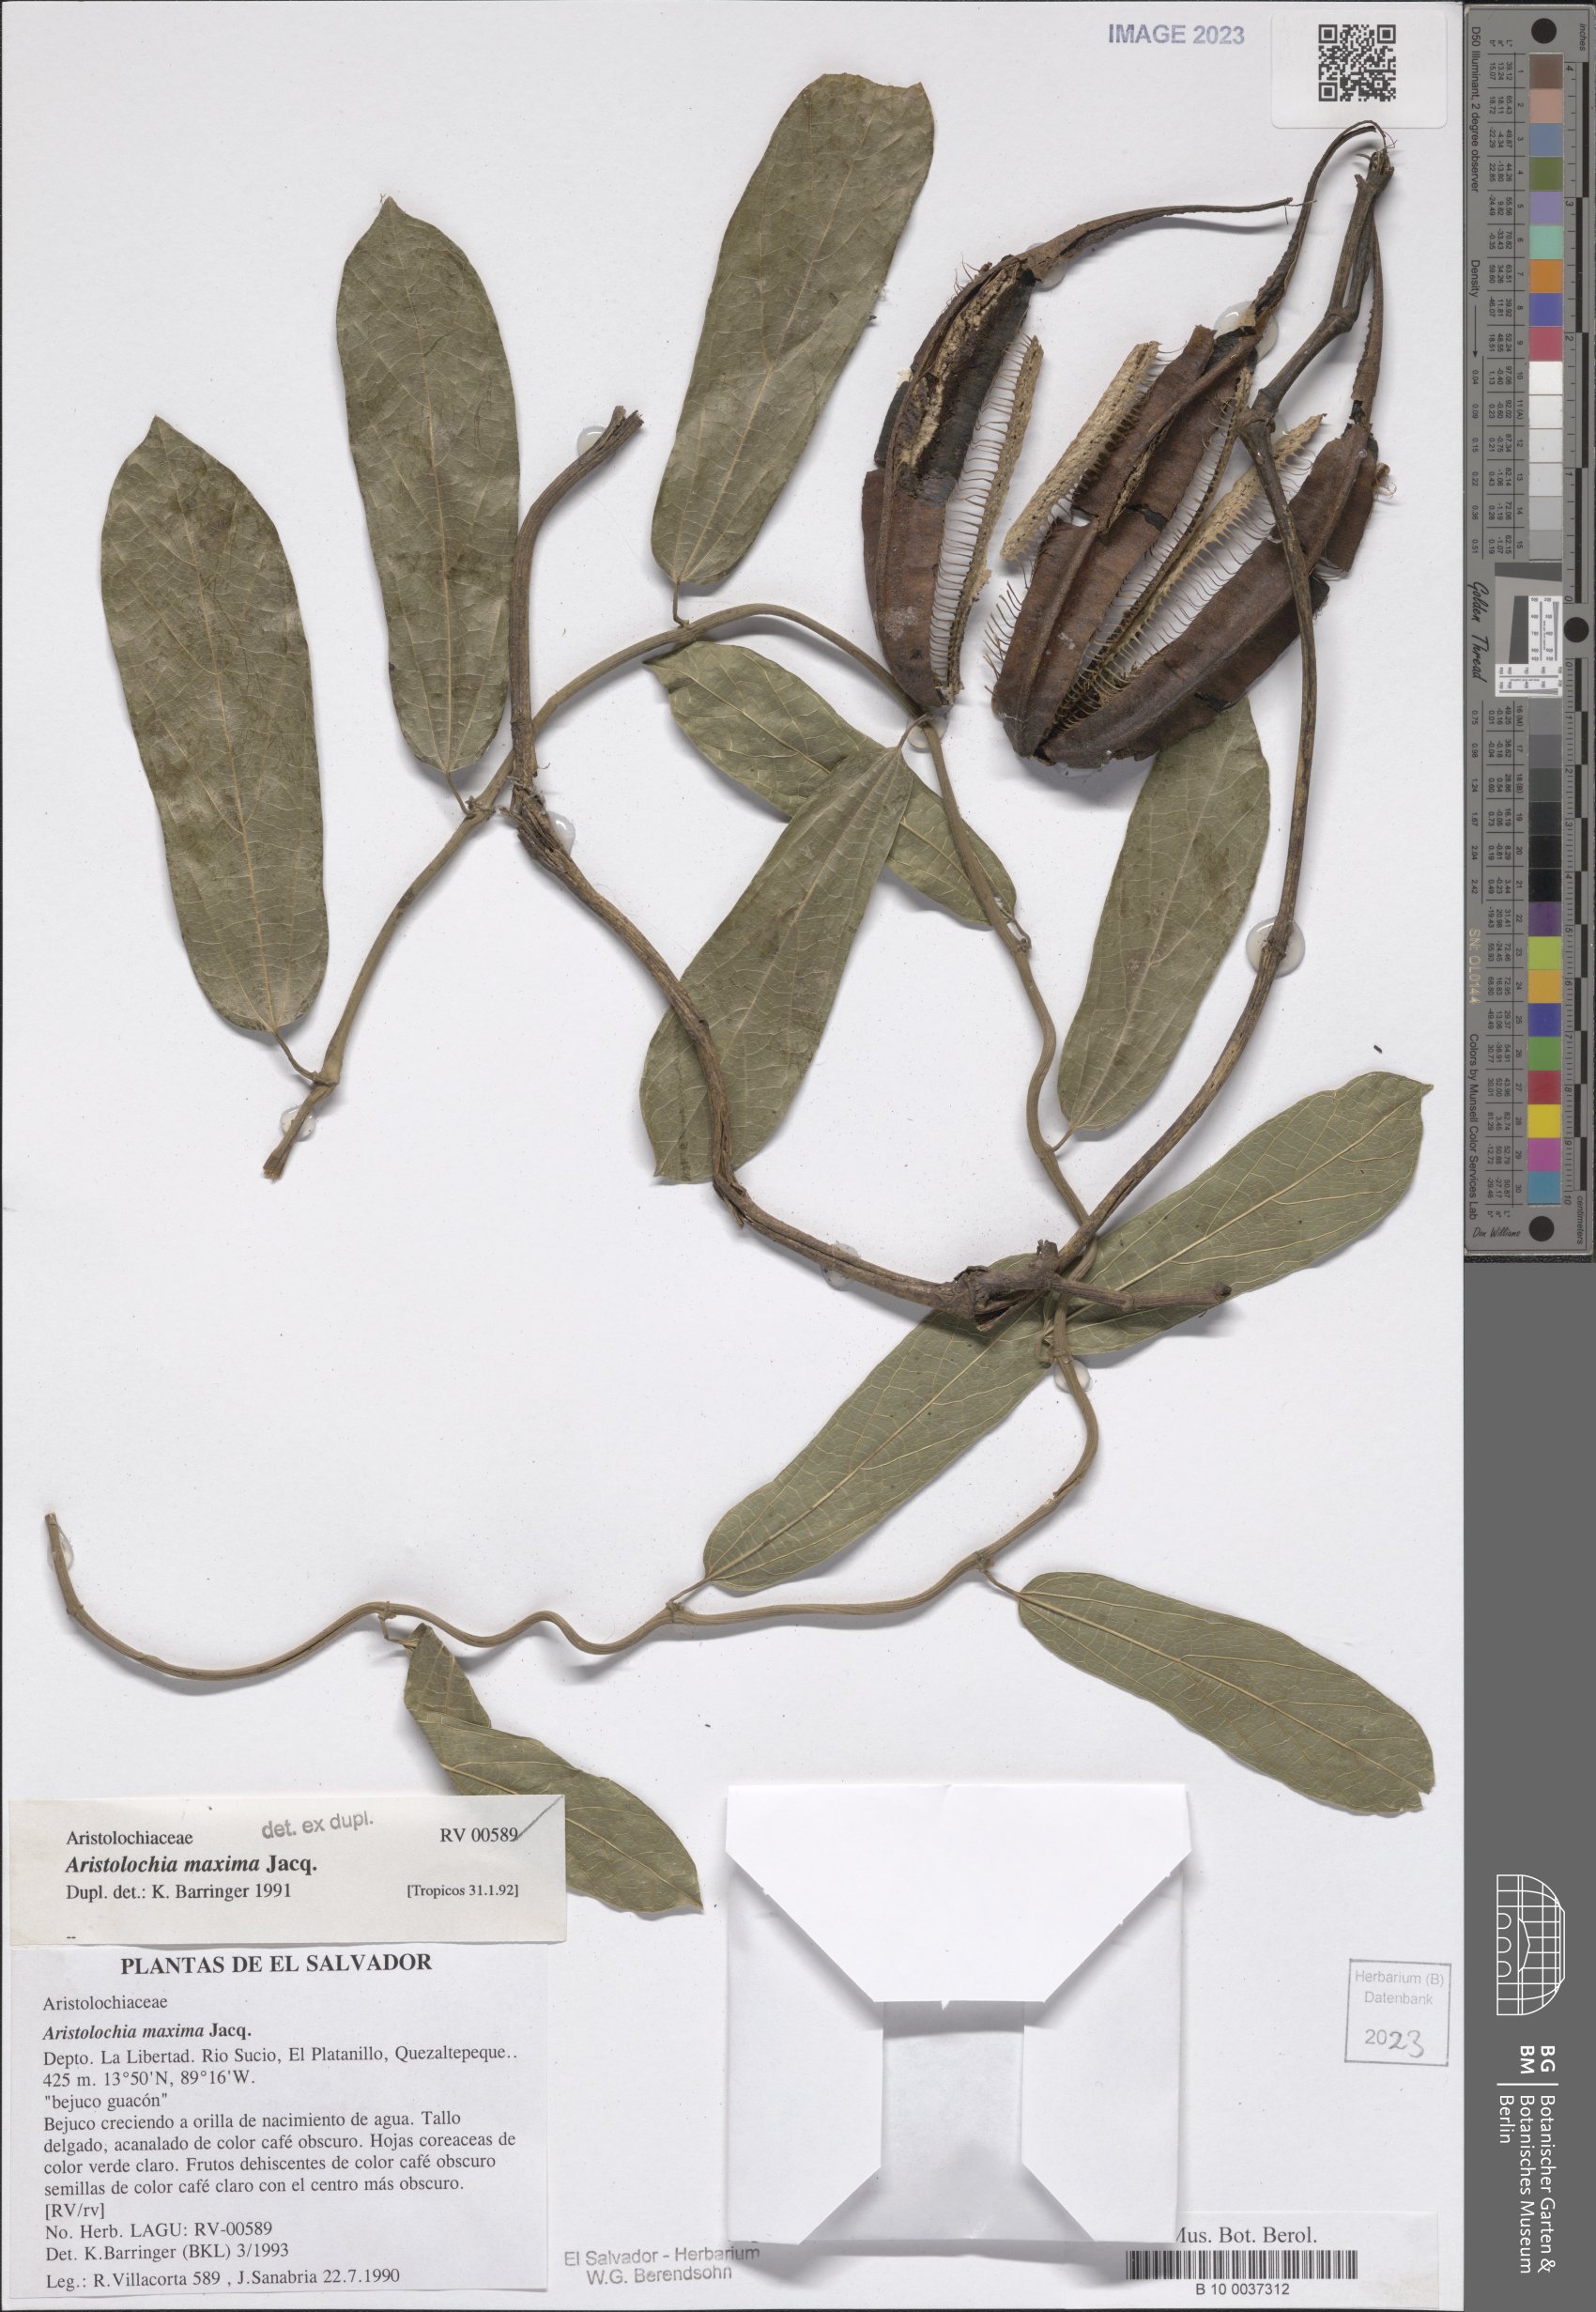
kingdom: Plantae
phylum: Tracheophyta
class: Magnoliopsida
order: Piperales
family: Aristolochiaceae
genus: Aristolochia
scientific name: Aristolochia maxima
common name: Florida dutchman's pipe
